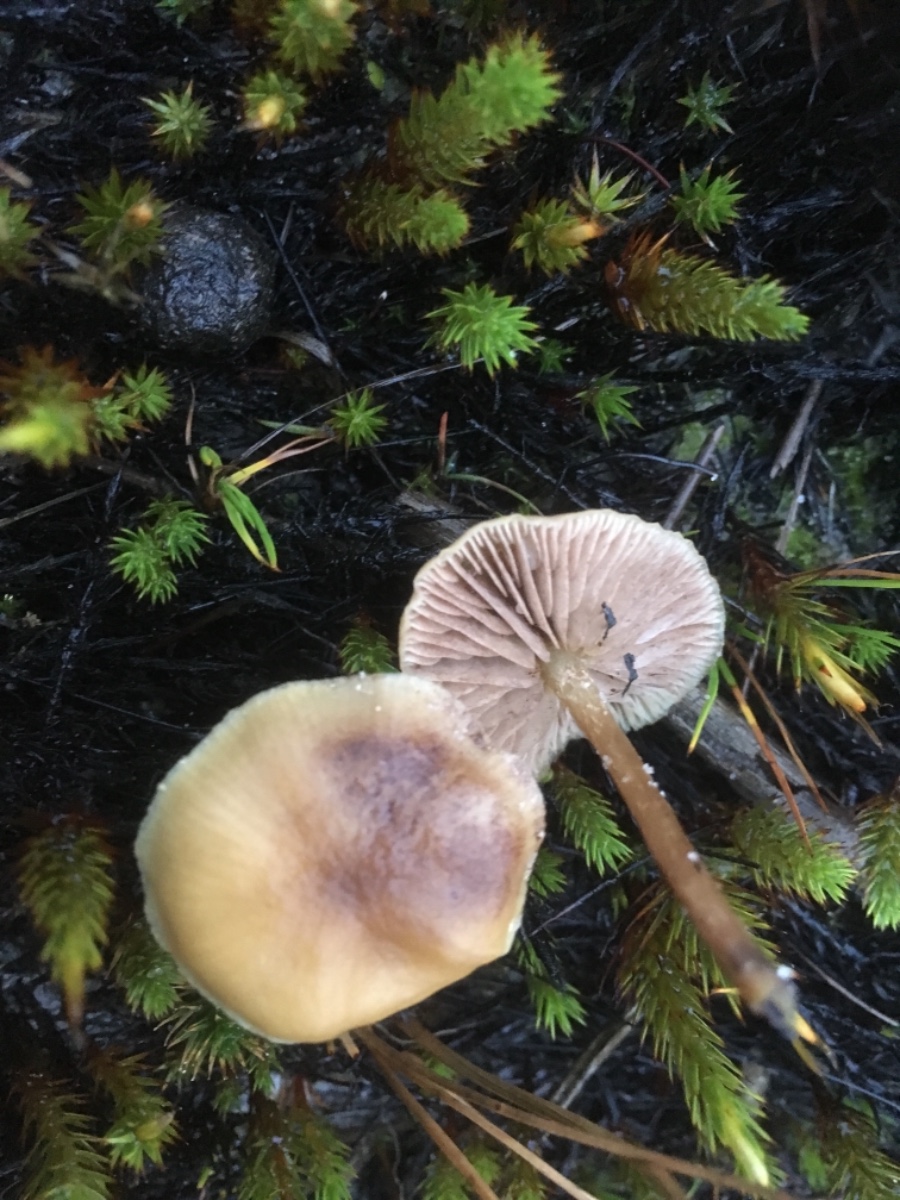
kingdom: Fungi
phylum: Basidiomycota
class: Agaricomycetes
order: Agaricales
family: Strophariaceae
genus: Hypholoma
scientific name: Hypholoma
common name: svovlhat
